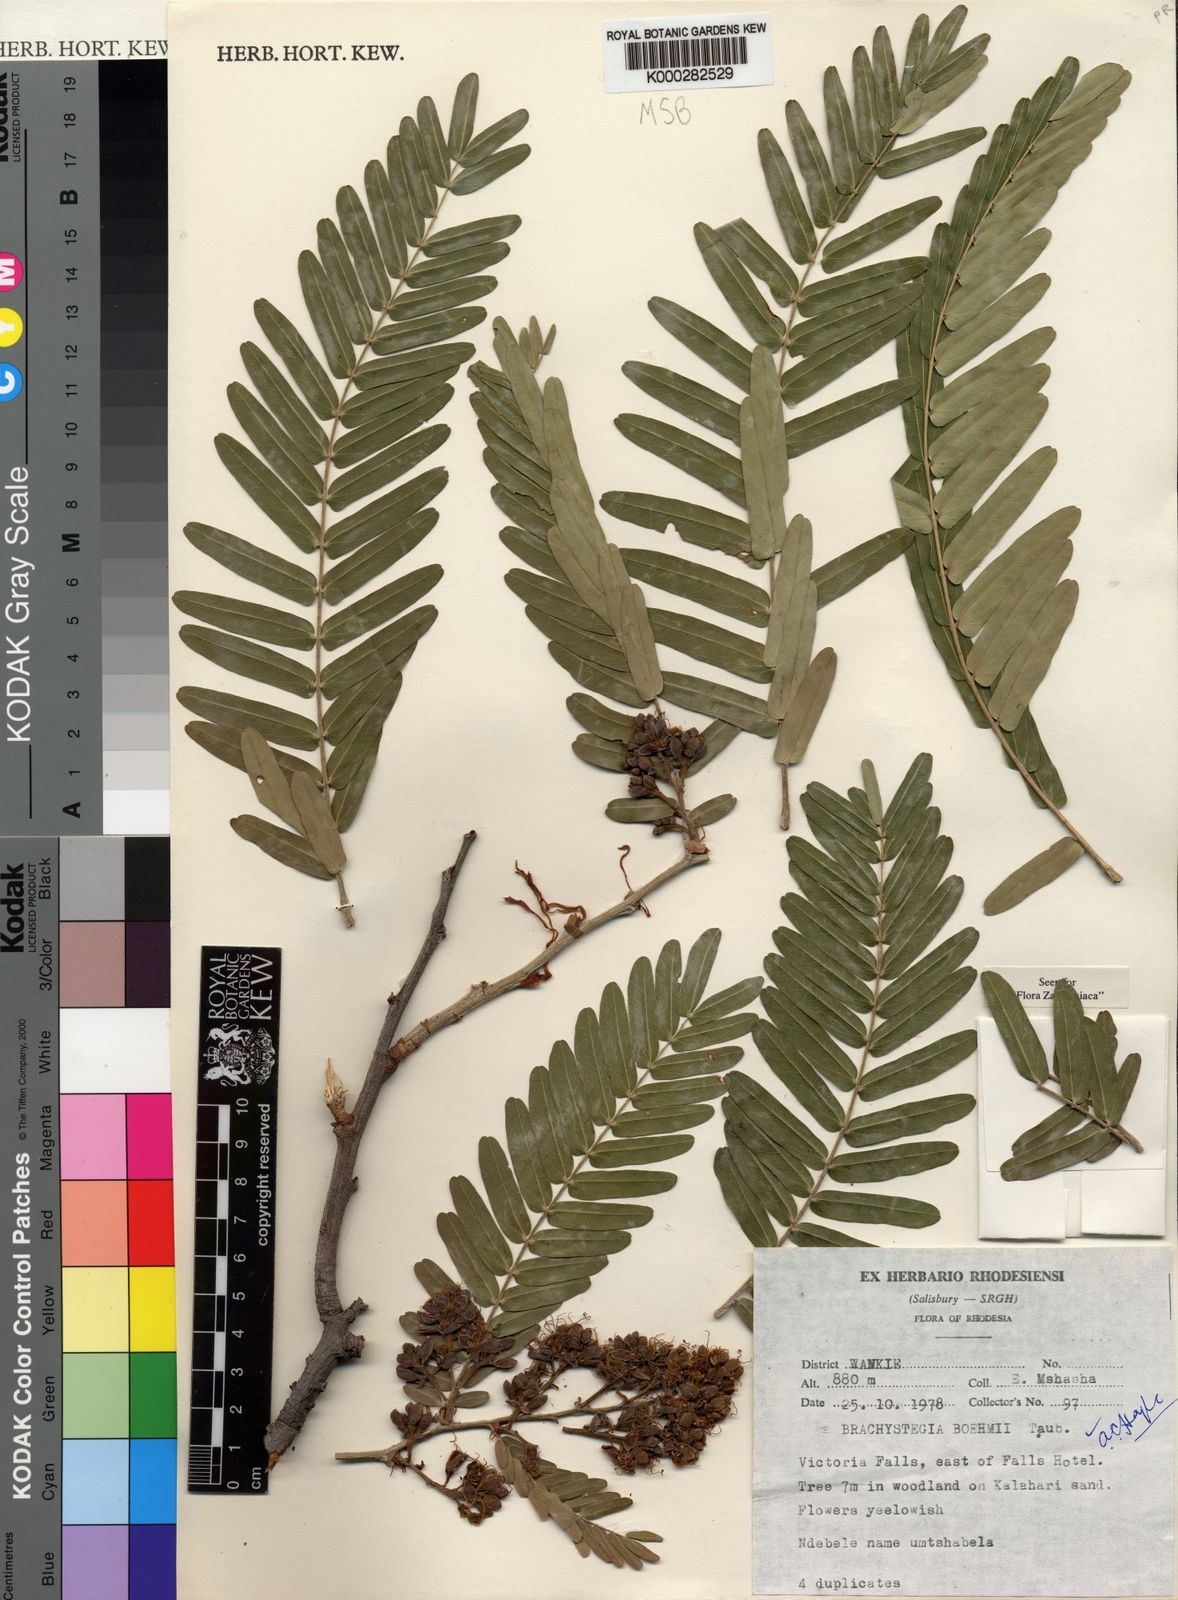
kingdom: Plantae
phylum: Tracheophyta
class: Magnoliopsida
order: Fabales
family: Fabaceae
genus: Brachystegia
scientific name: Brachystegia boehmii
